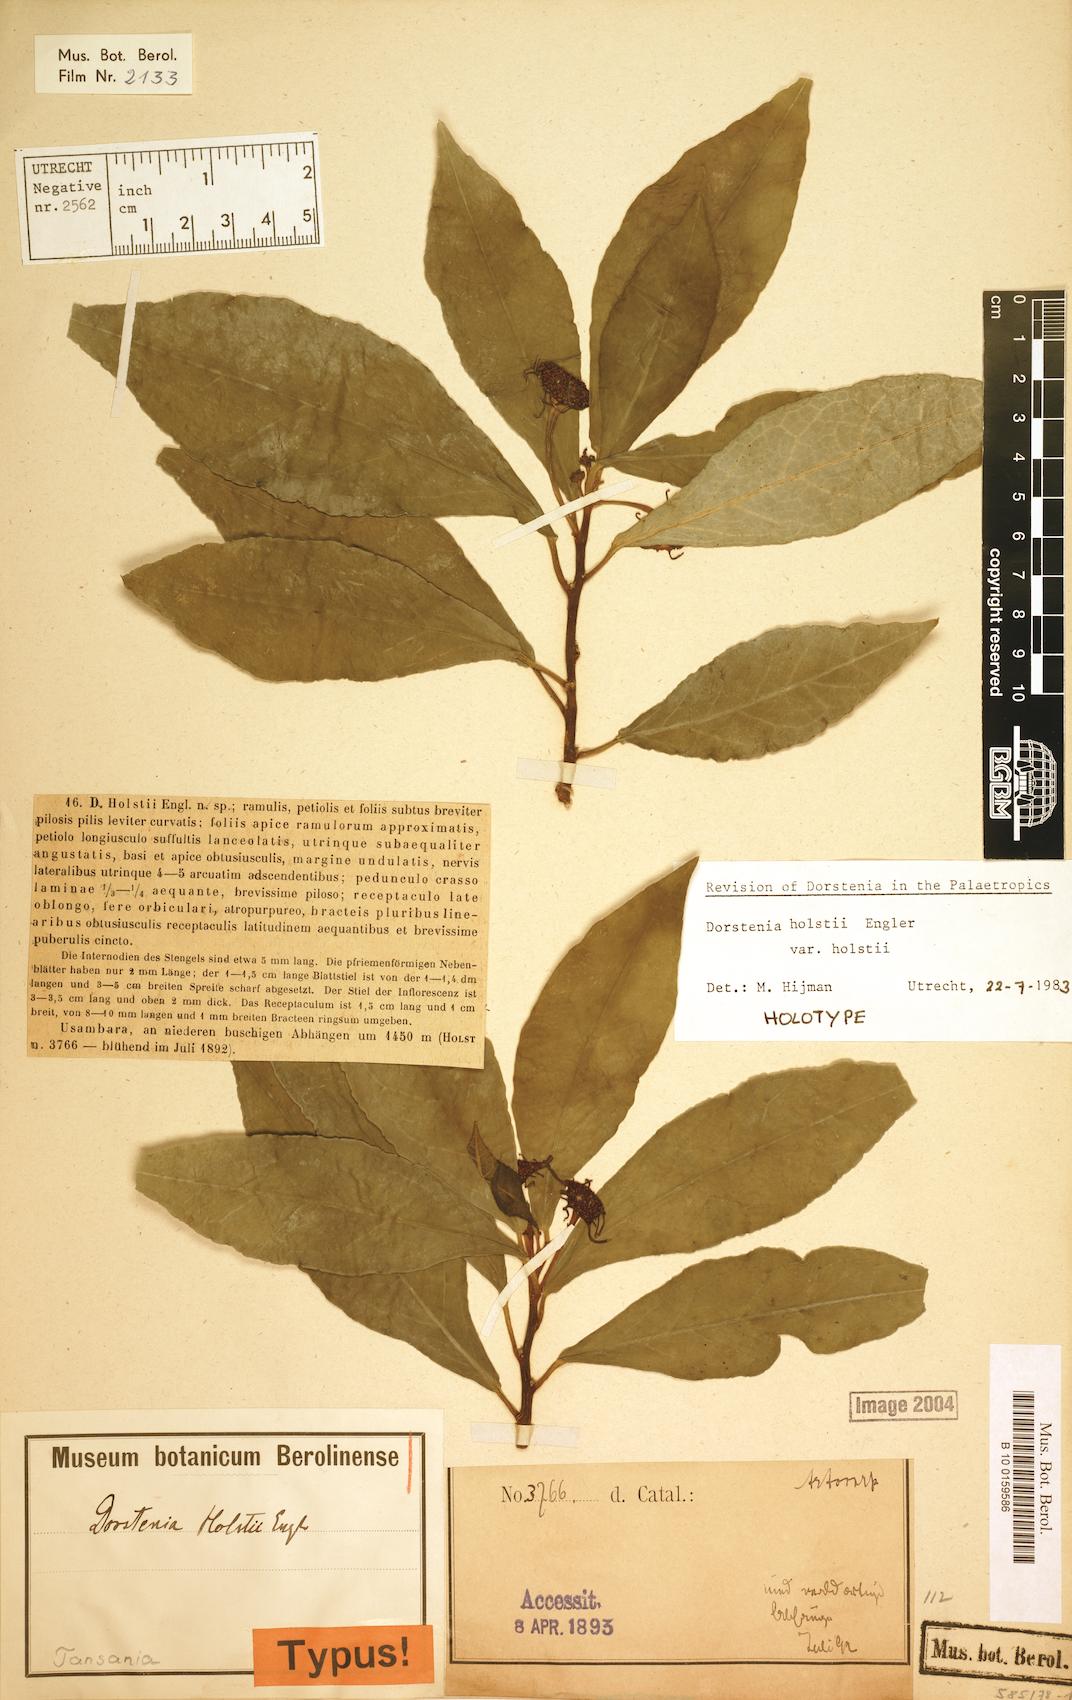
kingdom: Plantae
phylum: Tracheophyta
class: Magnoliopsida
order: Rosales
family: Moraceae
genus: Dorstenia
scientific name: Dorstenia holstii
